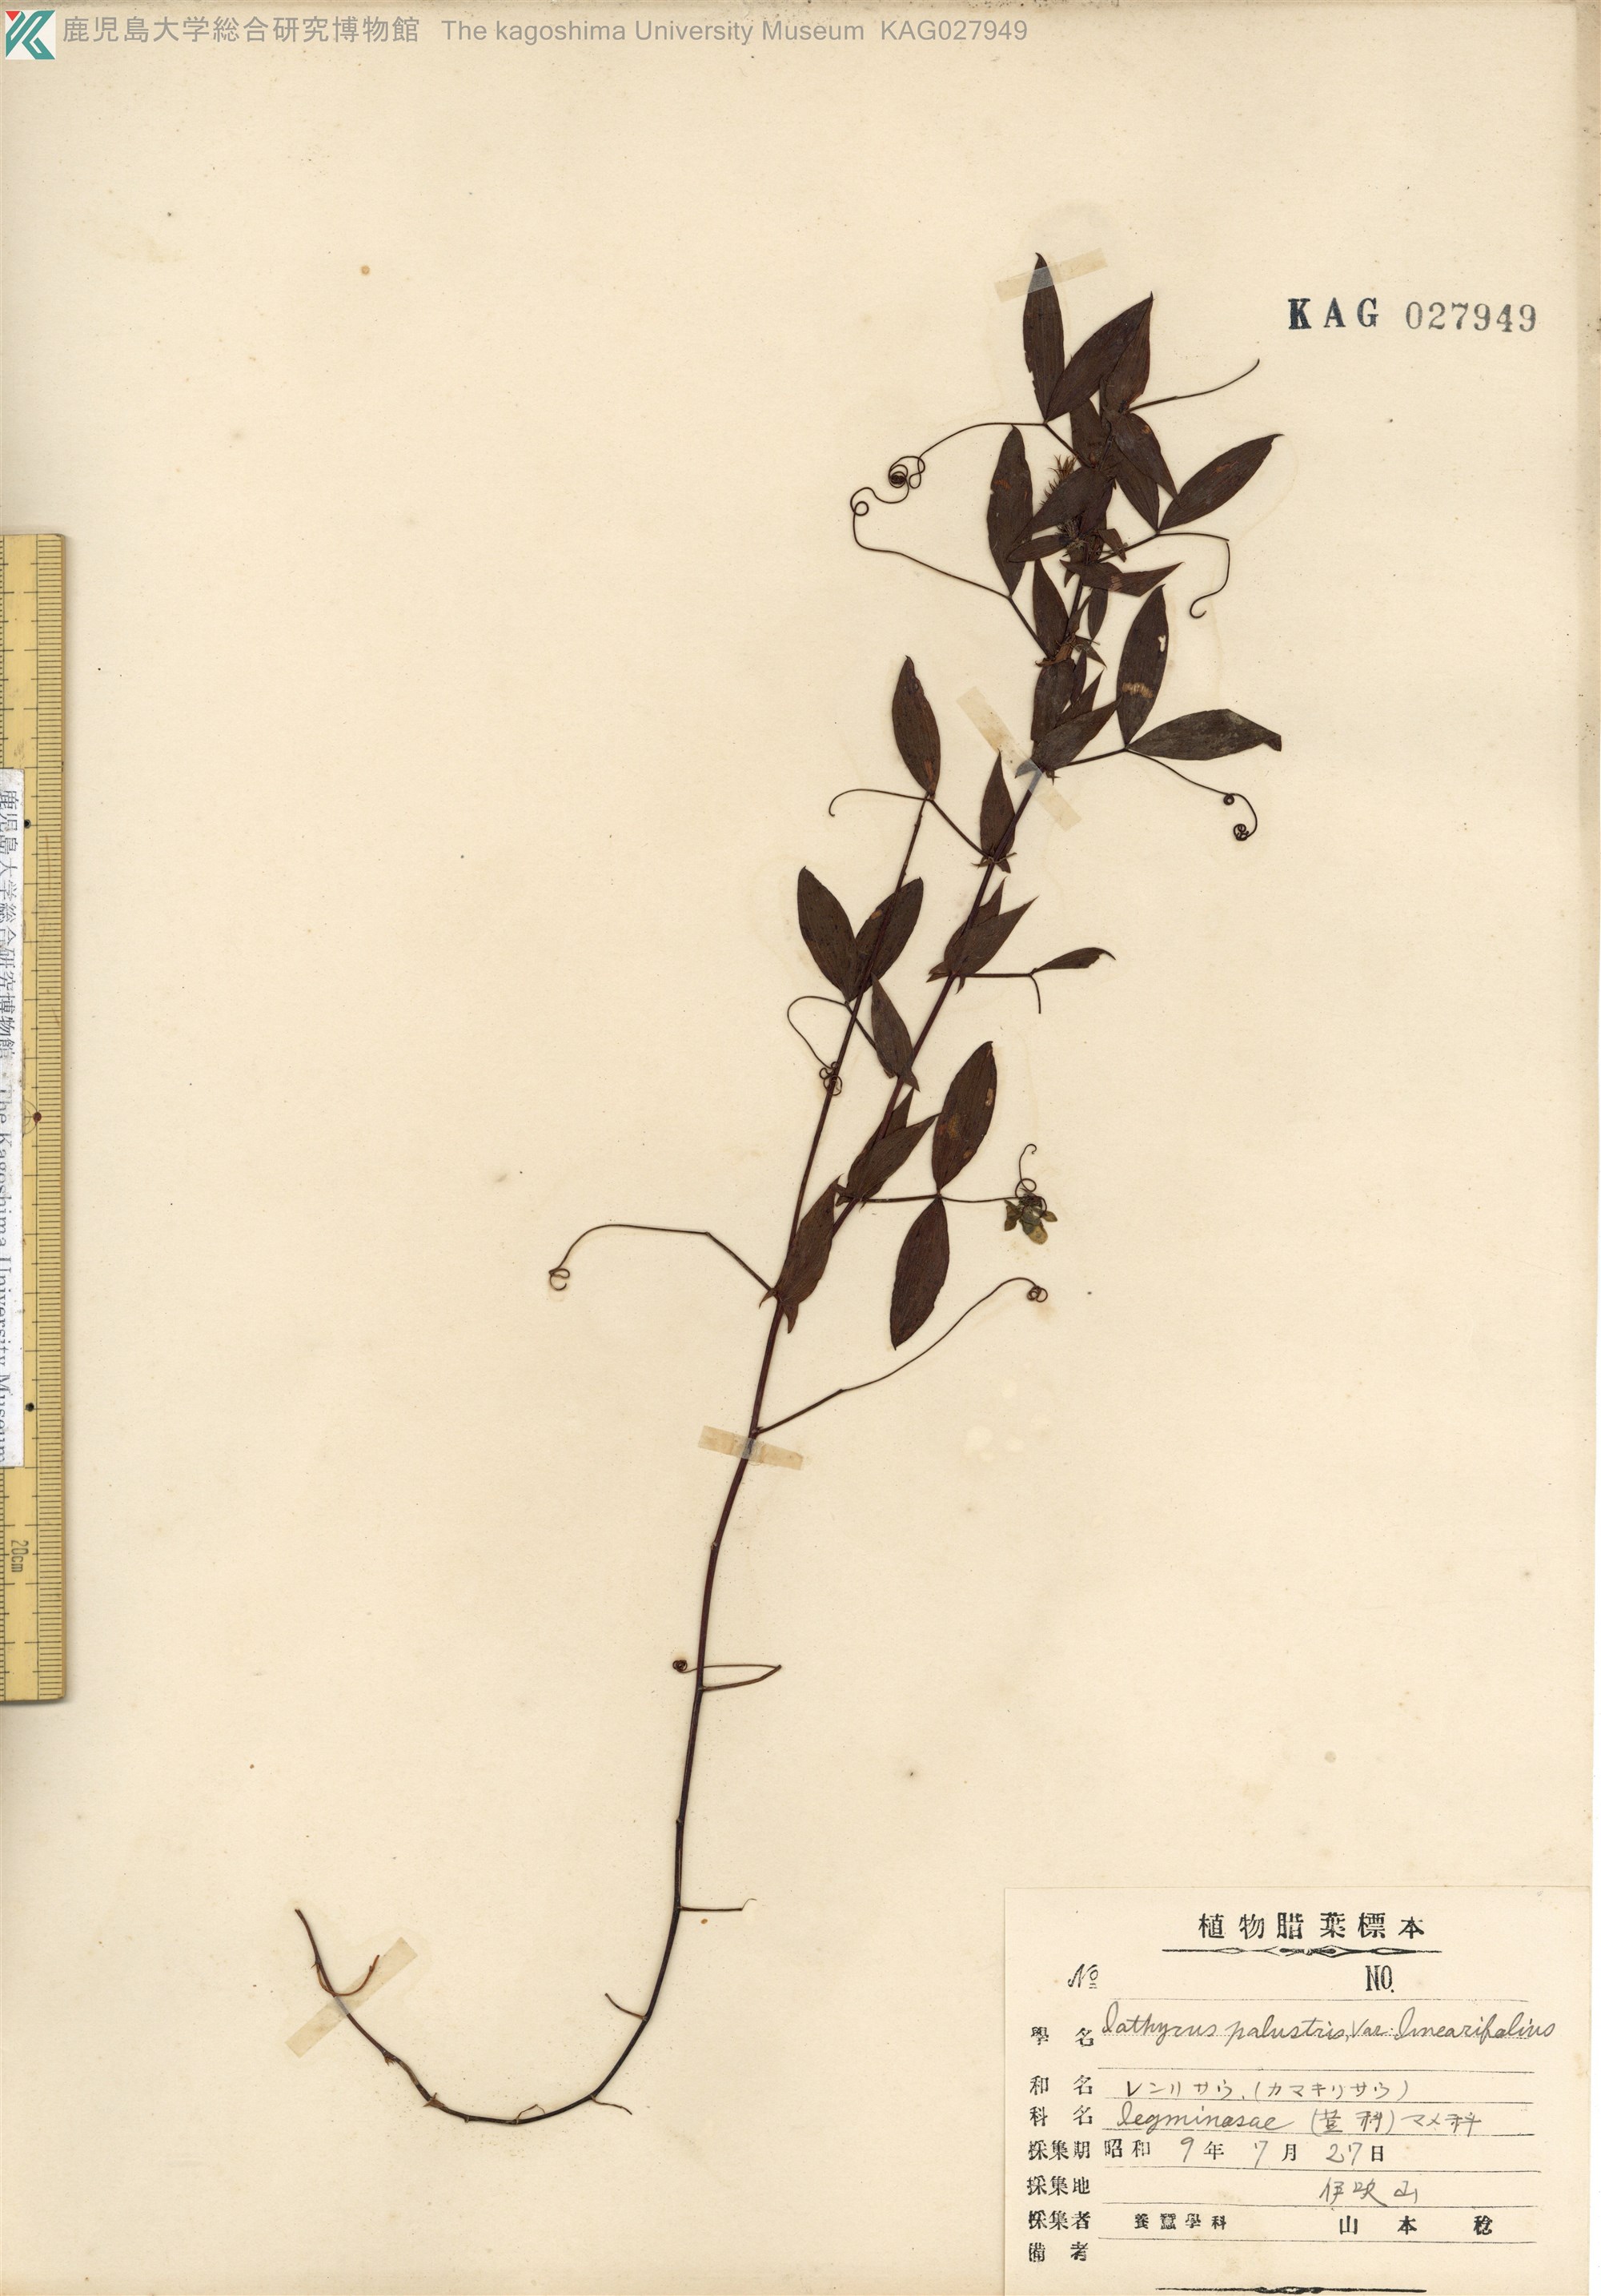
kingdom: Plantae
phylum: Tracheophyta
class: Magnoliopsida
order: Fabales
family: Fabaceae
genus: Lathyrus
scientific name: Lathyrus pratensis
